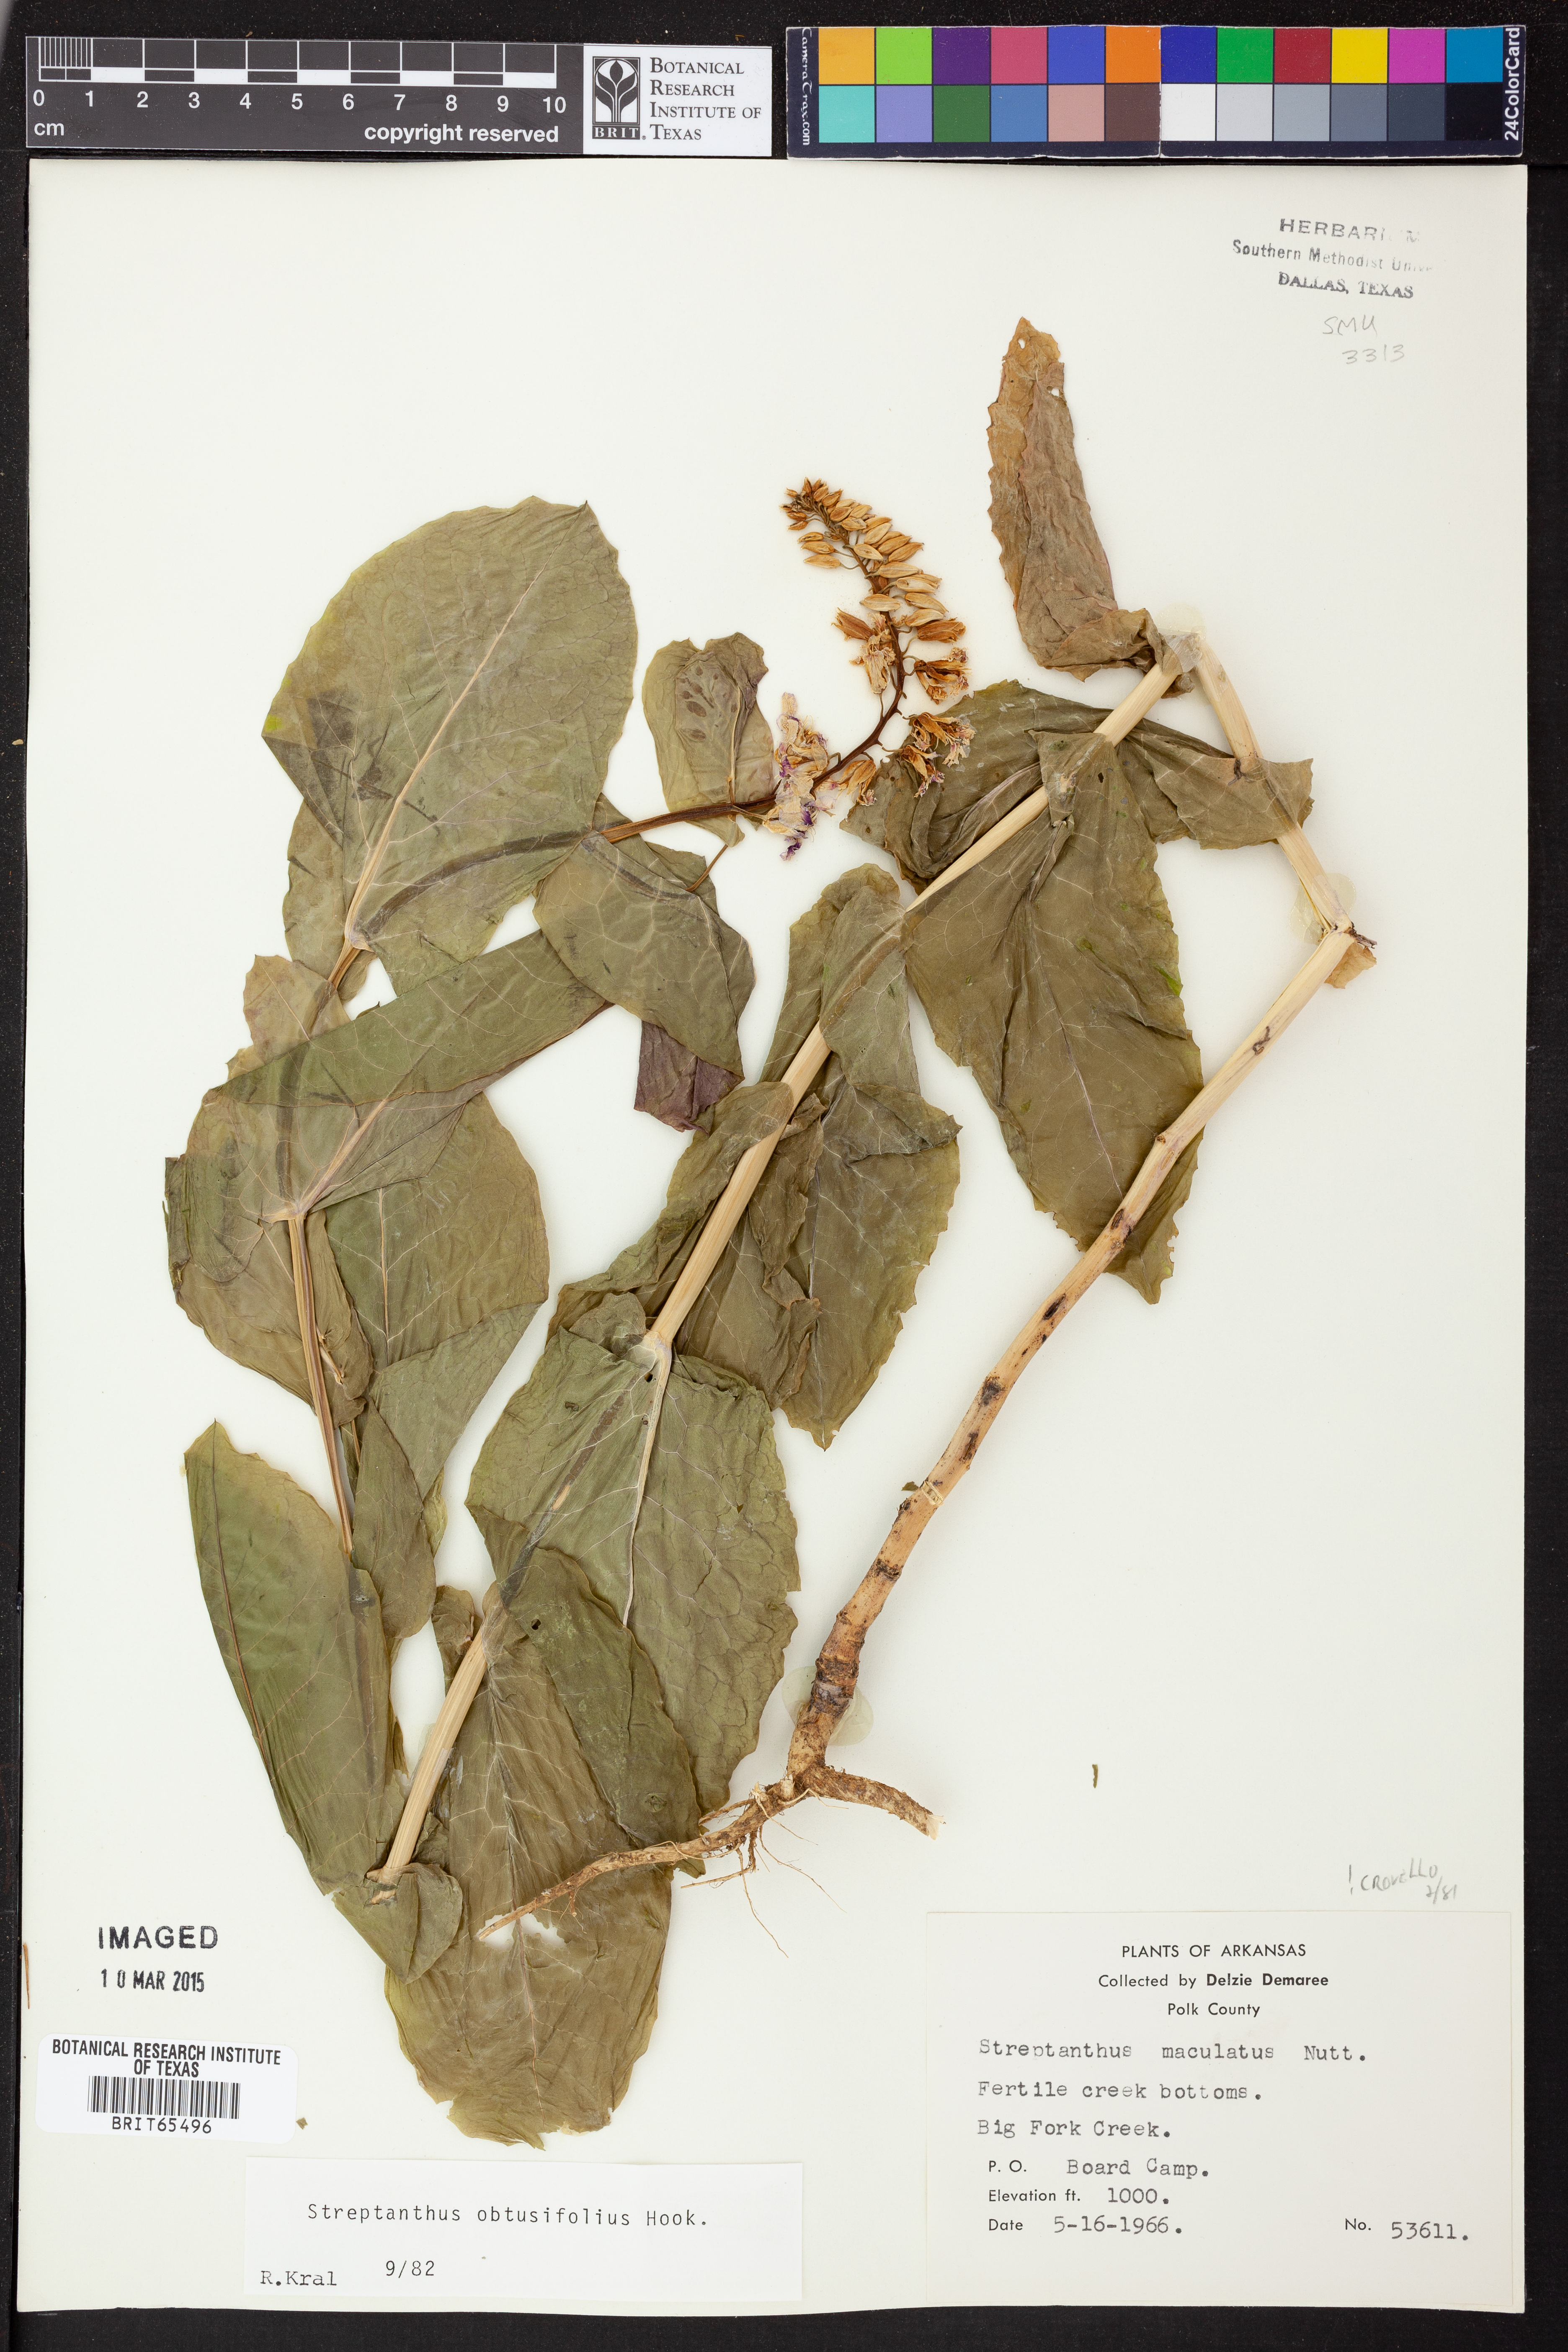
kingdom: Plantae
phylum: Tracheophyta
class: Magnoliopsida
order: Brassicales
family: Brassicaceae
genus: Streptanthus
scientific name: Streptanthus maculatus
